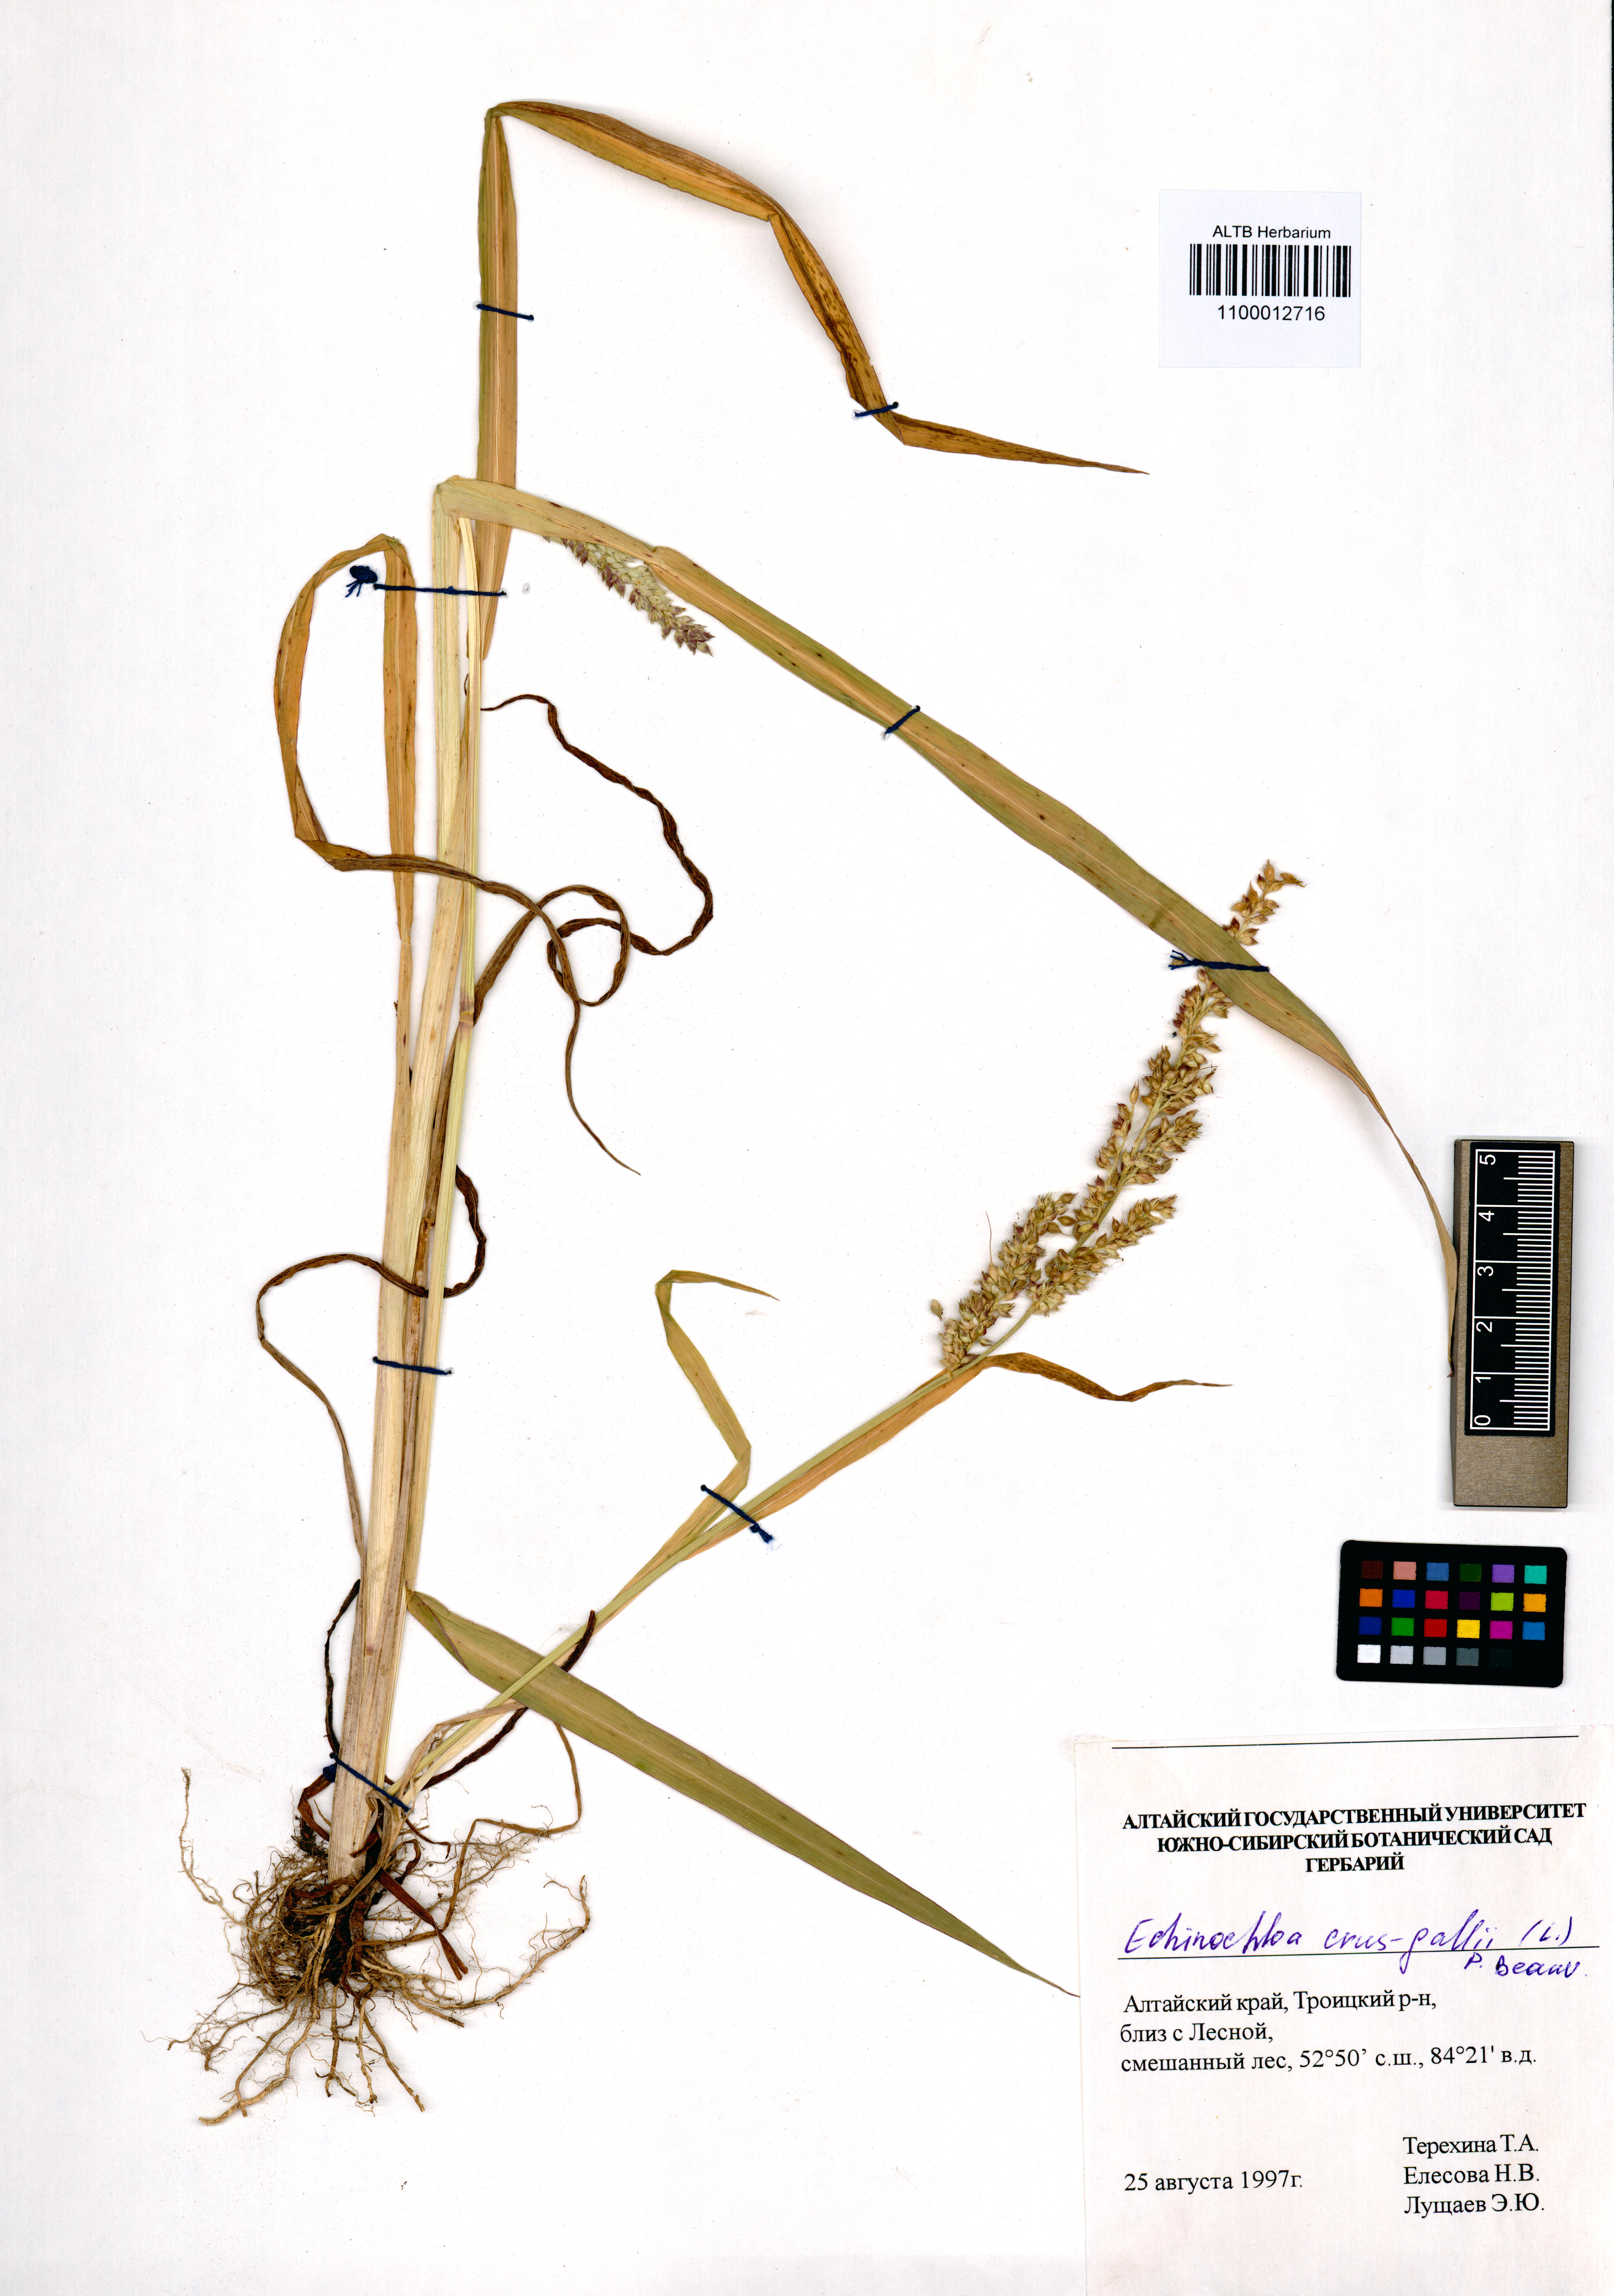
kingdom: Plantae
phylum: Tracheophyta
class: Liliopsida
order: Poales
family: Poaceae
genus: Echinochloa
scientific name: Echinochloa crus-galli
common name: Cockspur
